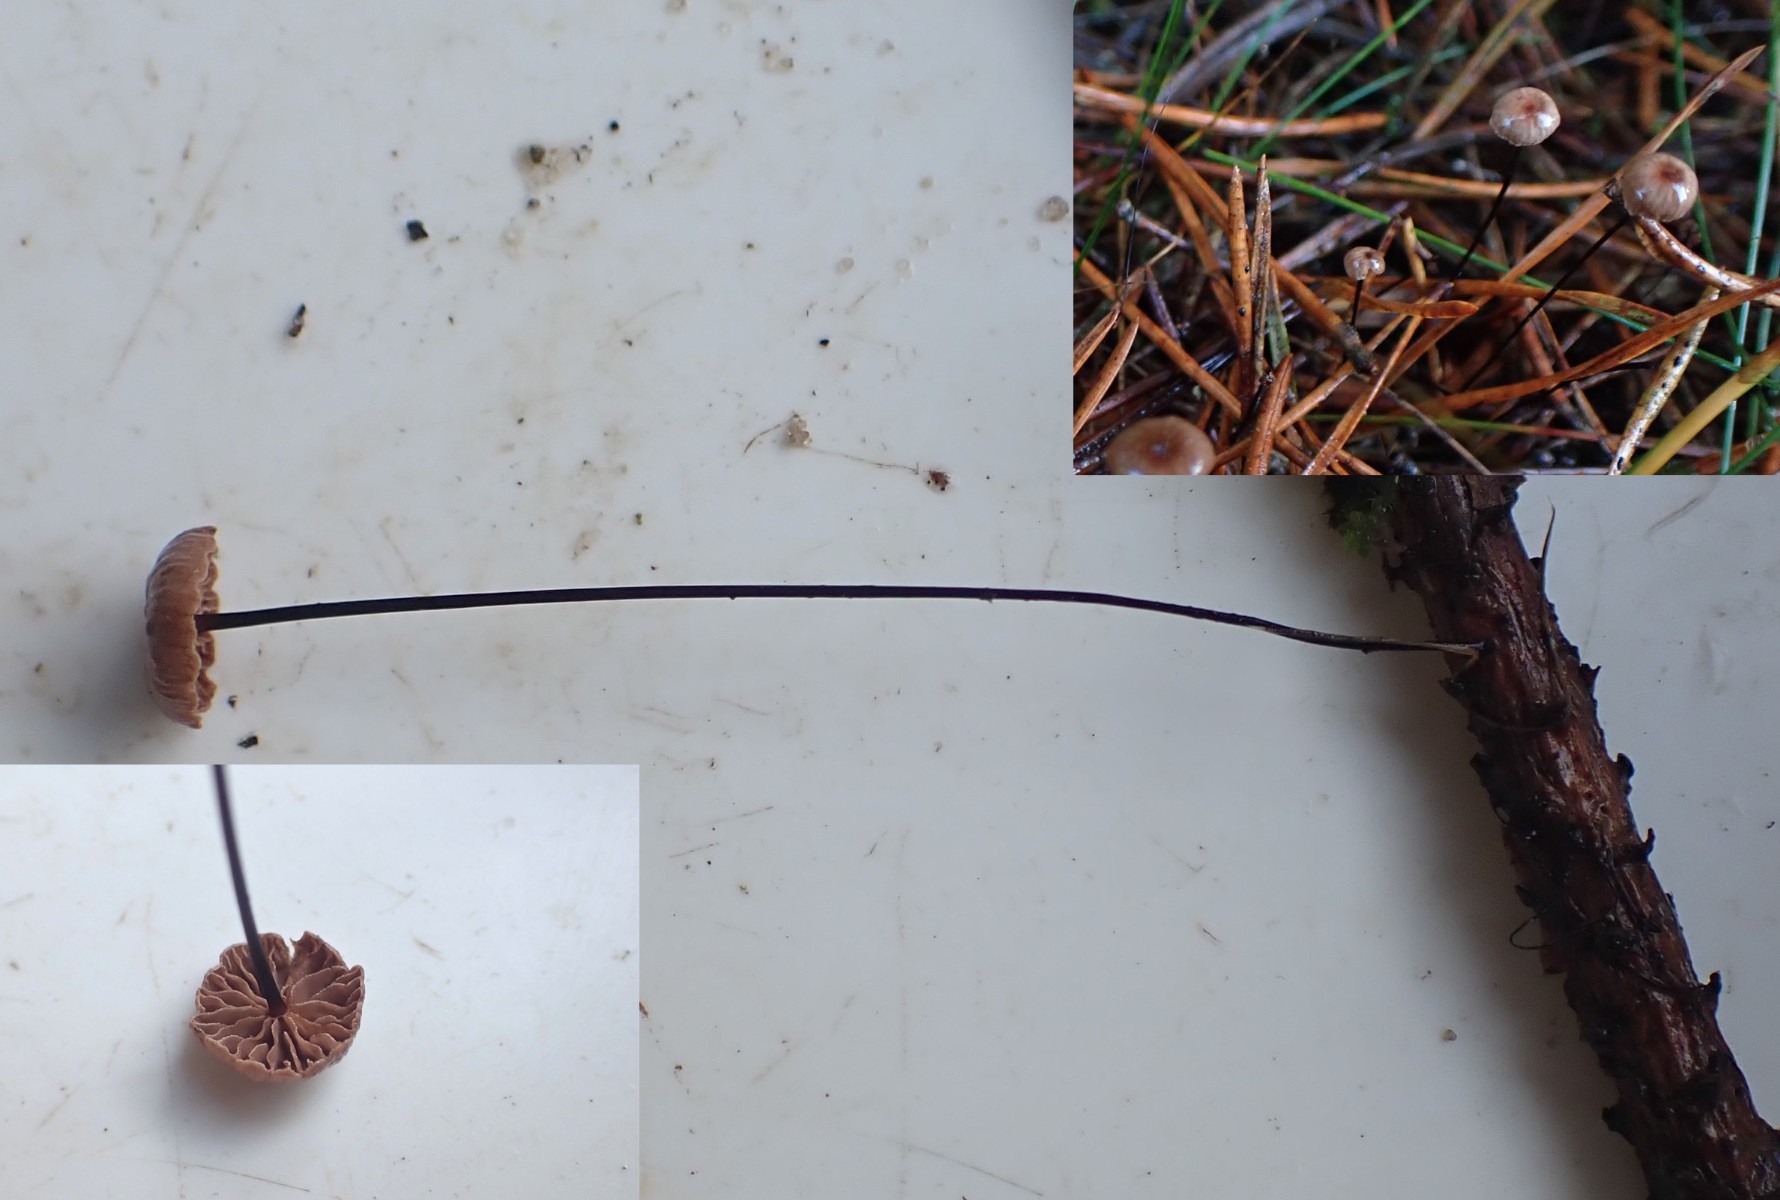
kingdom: Fungi
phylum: Basidiomycota
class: Agaricomycetes
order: Agaricales
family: Omphalotaceae
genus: Gymnopus
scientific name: Gymnopus androsaceus
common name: trådstokket fladhat
